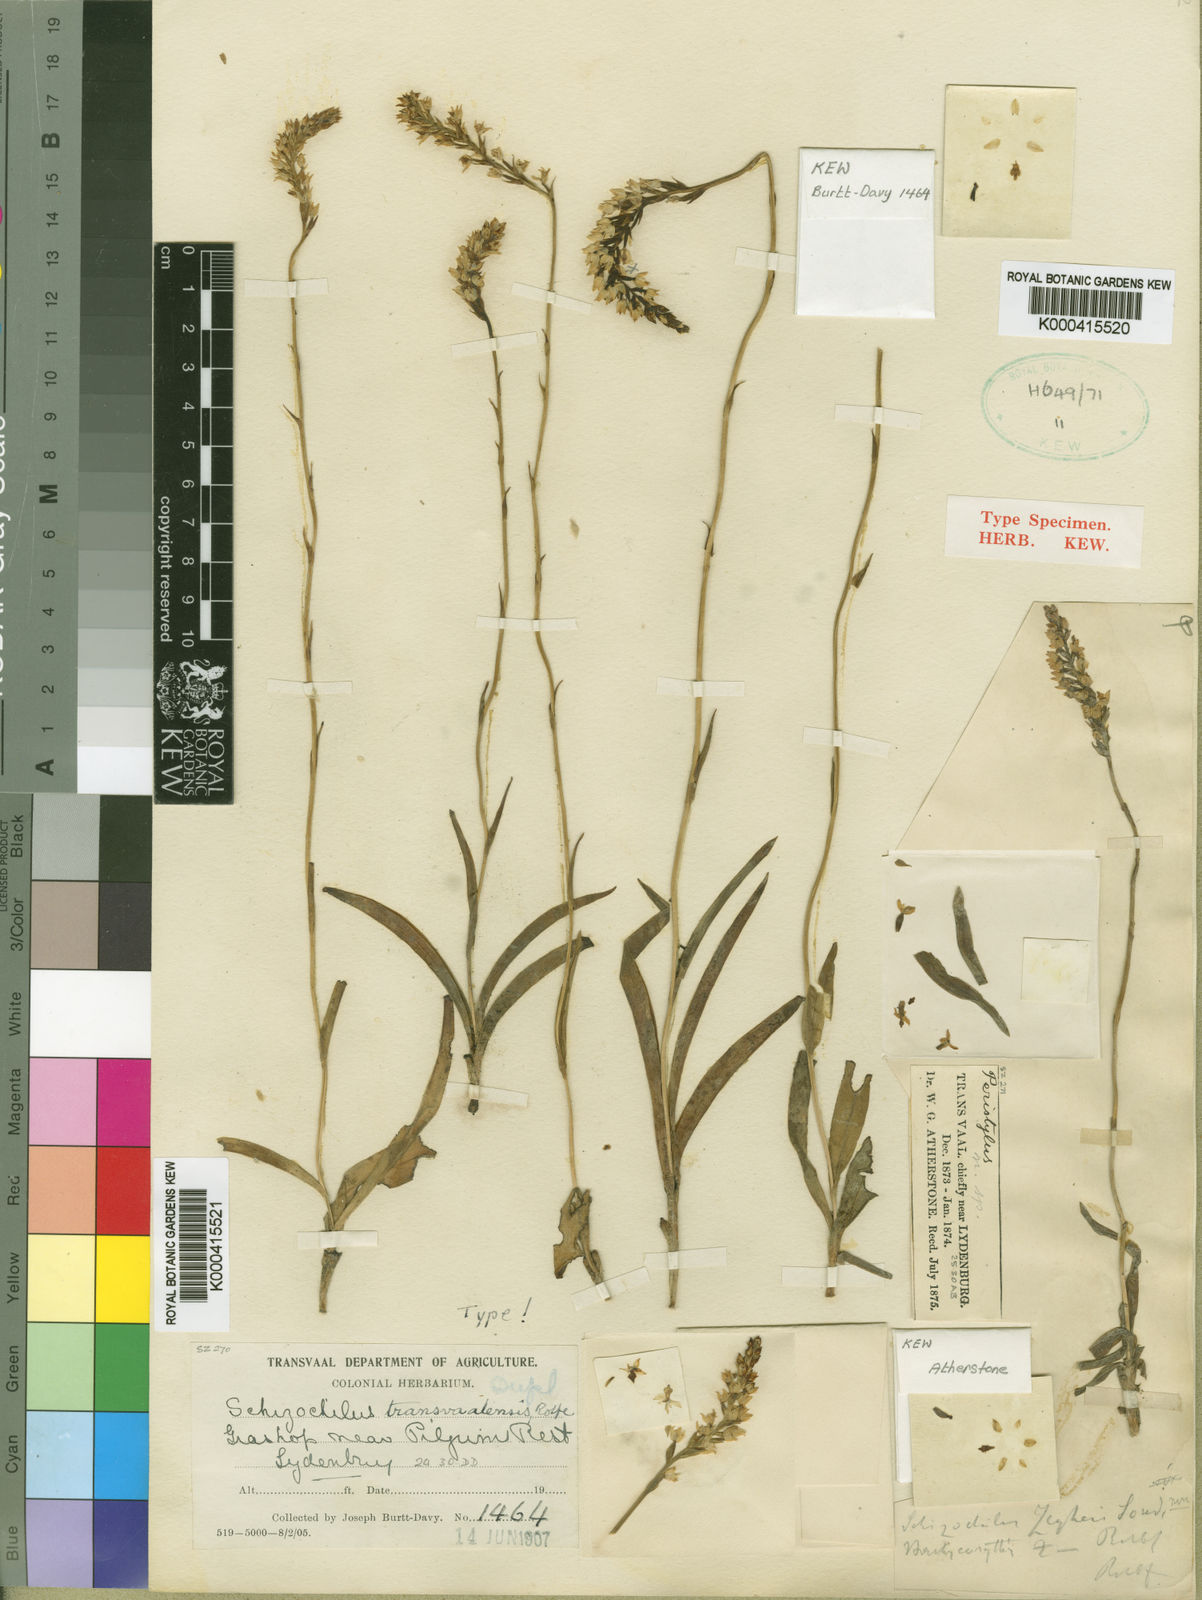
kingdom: Plantae
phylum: Tracheophyta
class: Liliopsida
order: Asparagales
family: Orchidaceae
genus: Schizochilus
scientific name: Schizochilus cecilii
